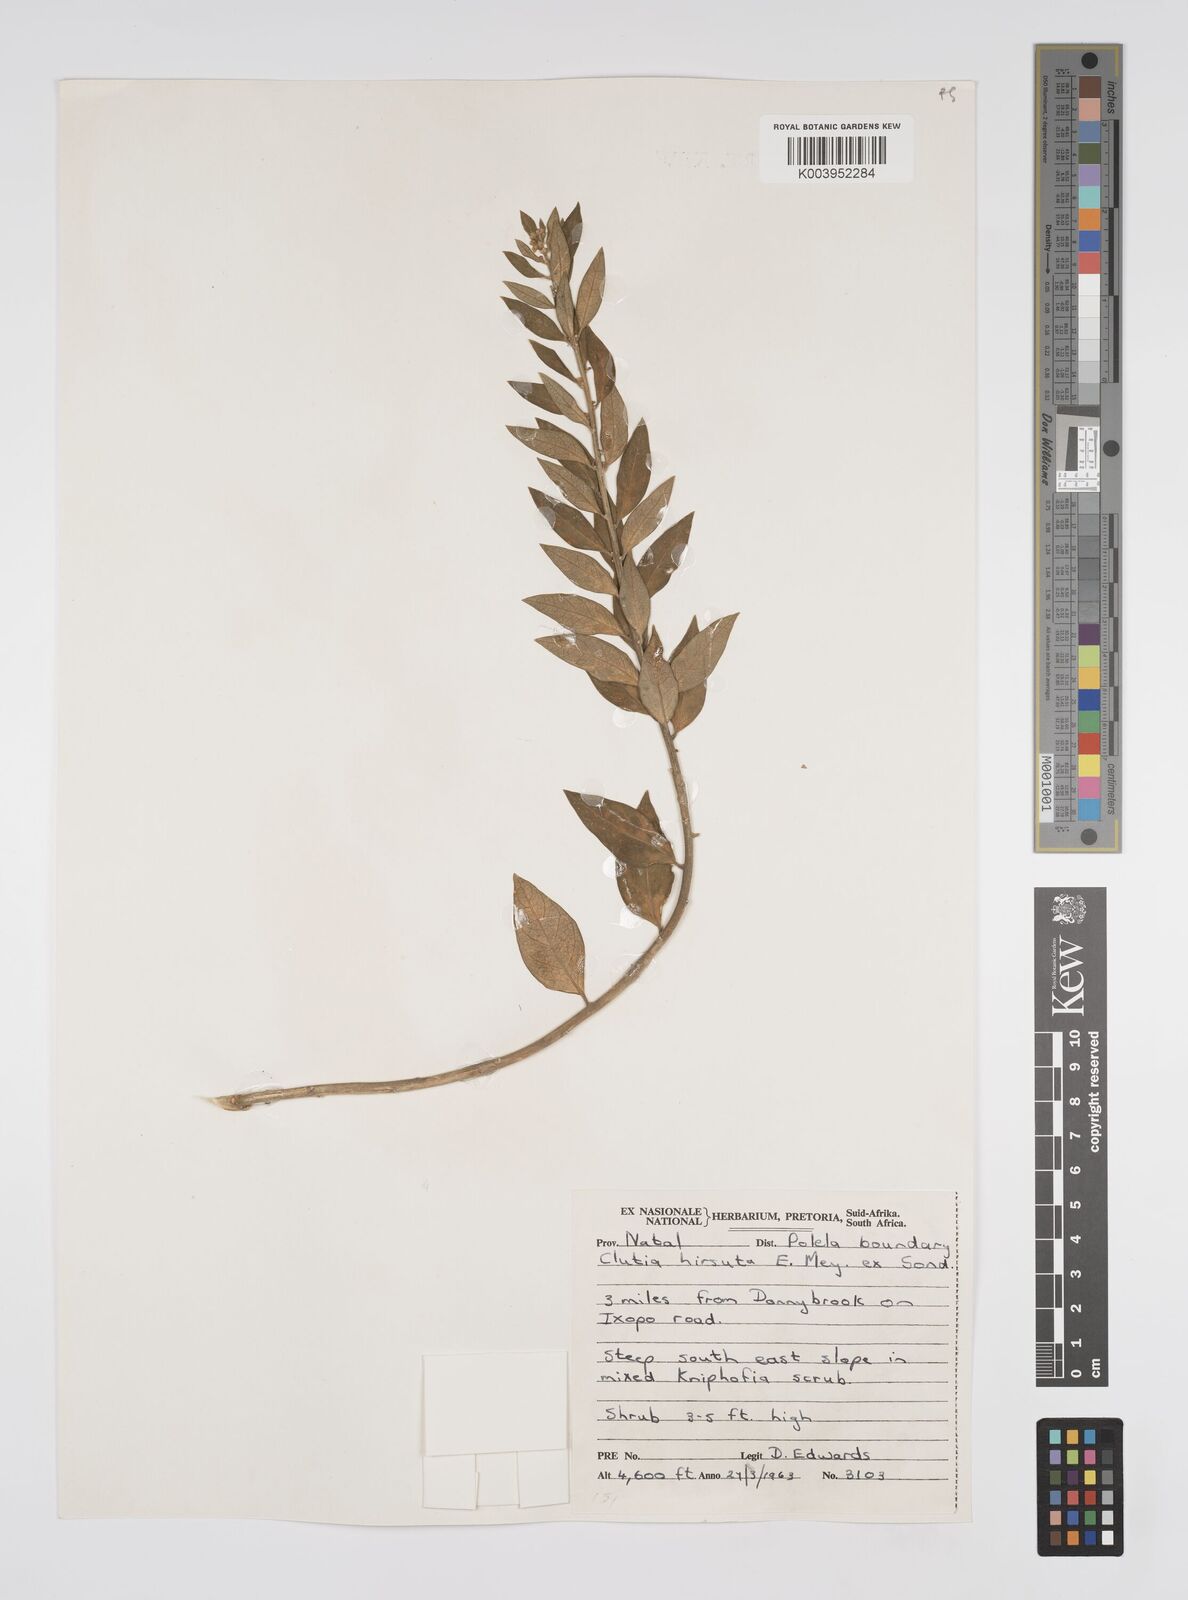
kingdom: Plantae
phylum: Tracheophyta
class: Magnoliopsida
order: Malpighiales
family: Peraceae
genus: Clutia
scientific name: Clutia affinis
